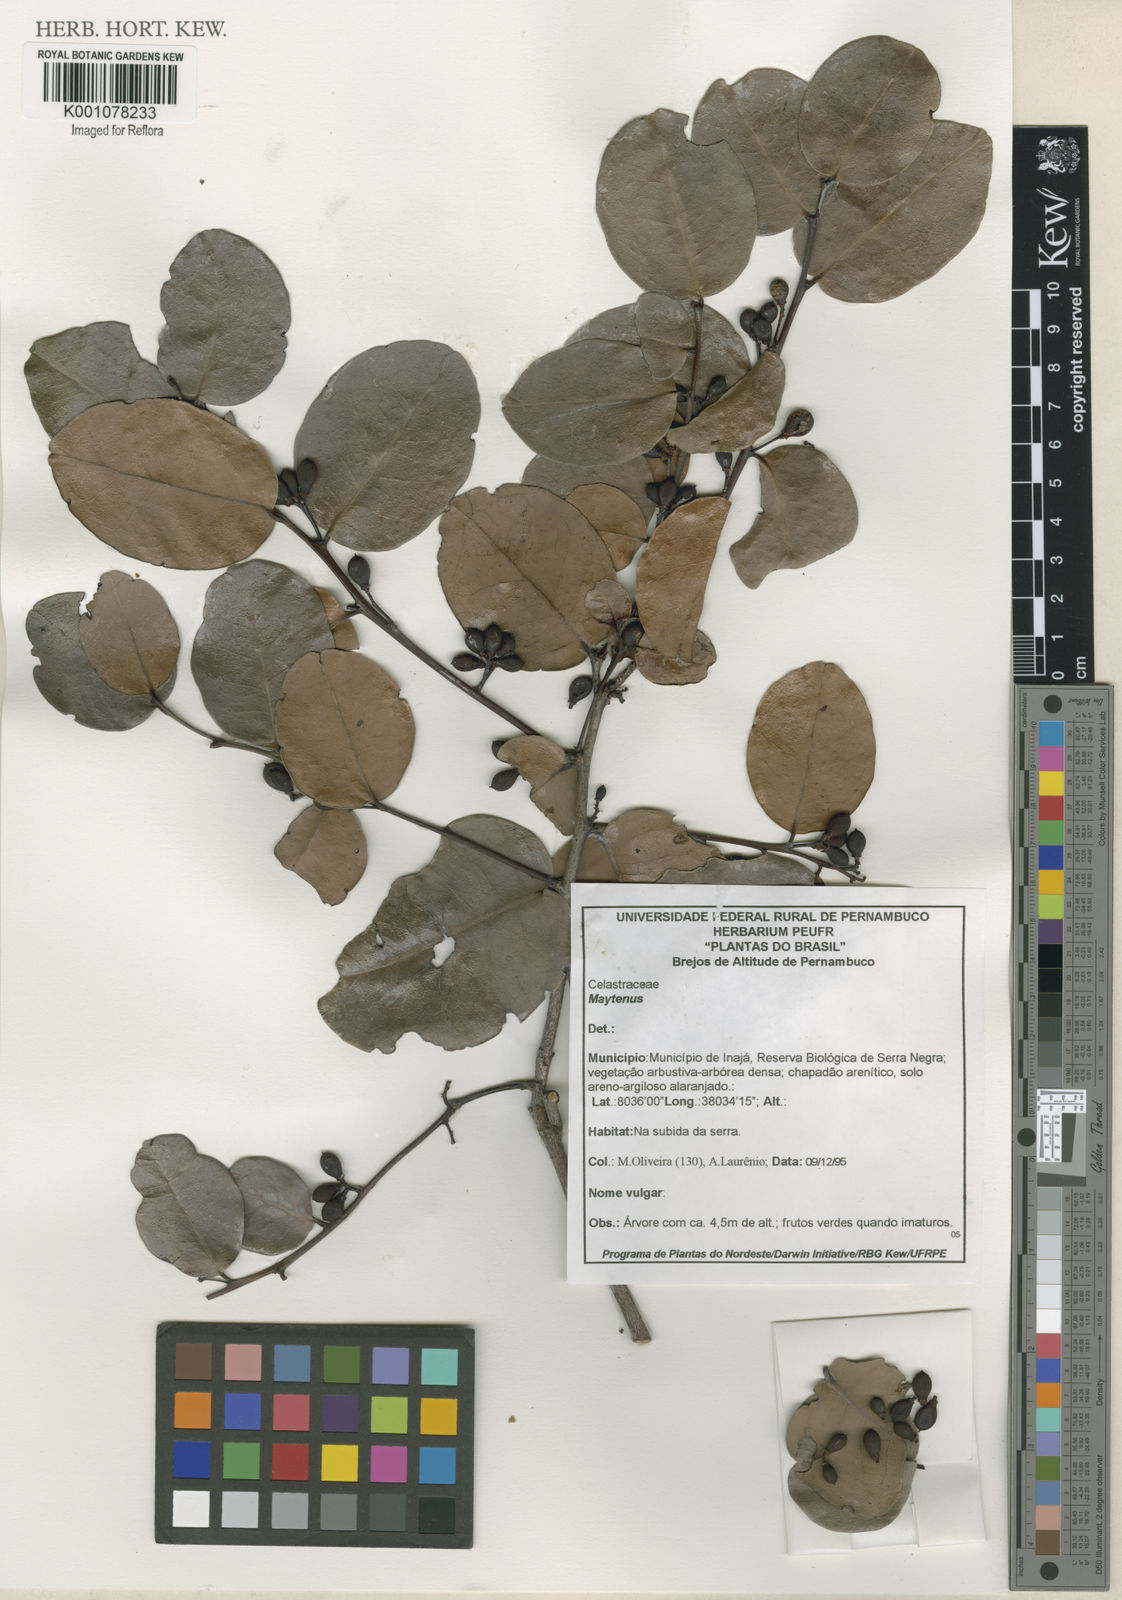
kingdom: Plantae
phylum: Tracheophyta
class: Magnoliopsida
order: Celastrales
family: Celastraceae
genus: Maytenus
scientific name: Maytenus
